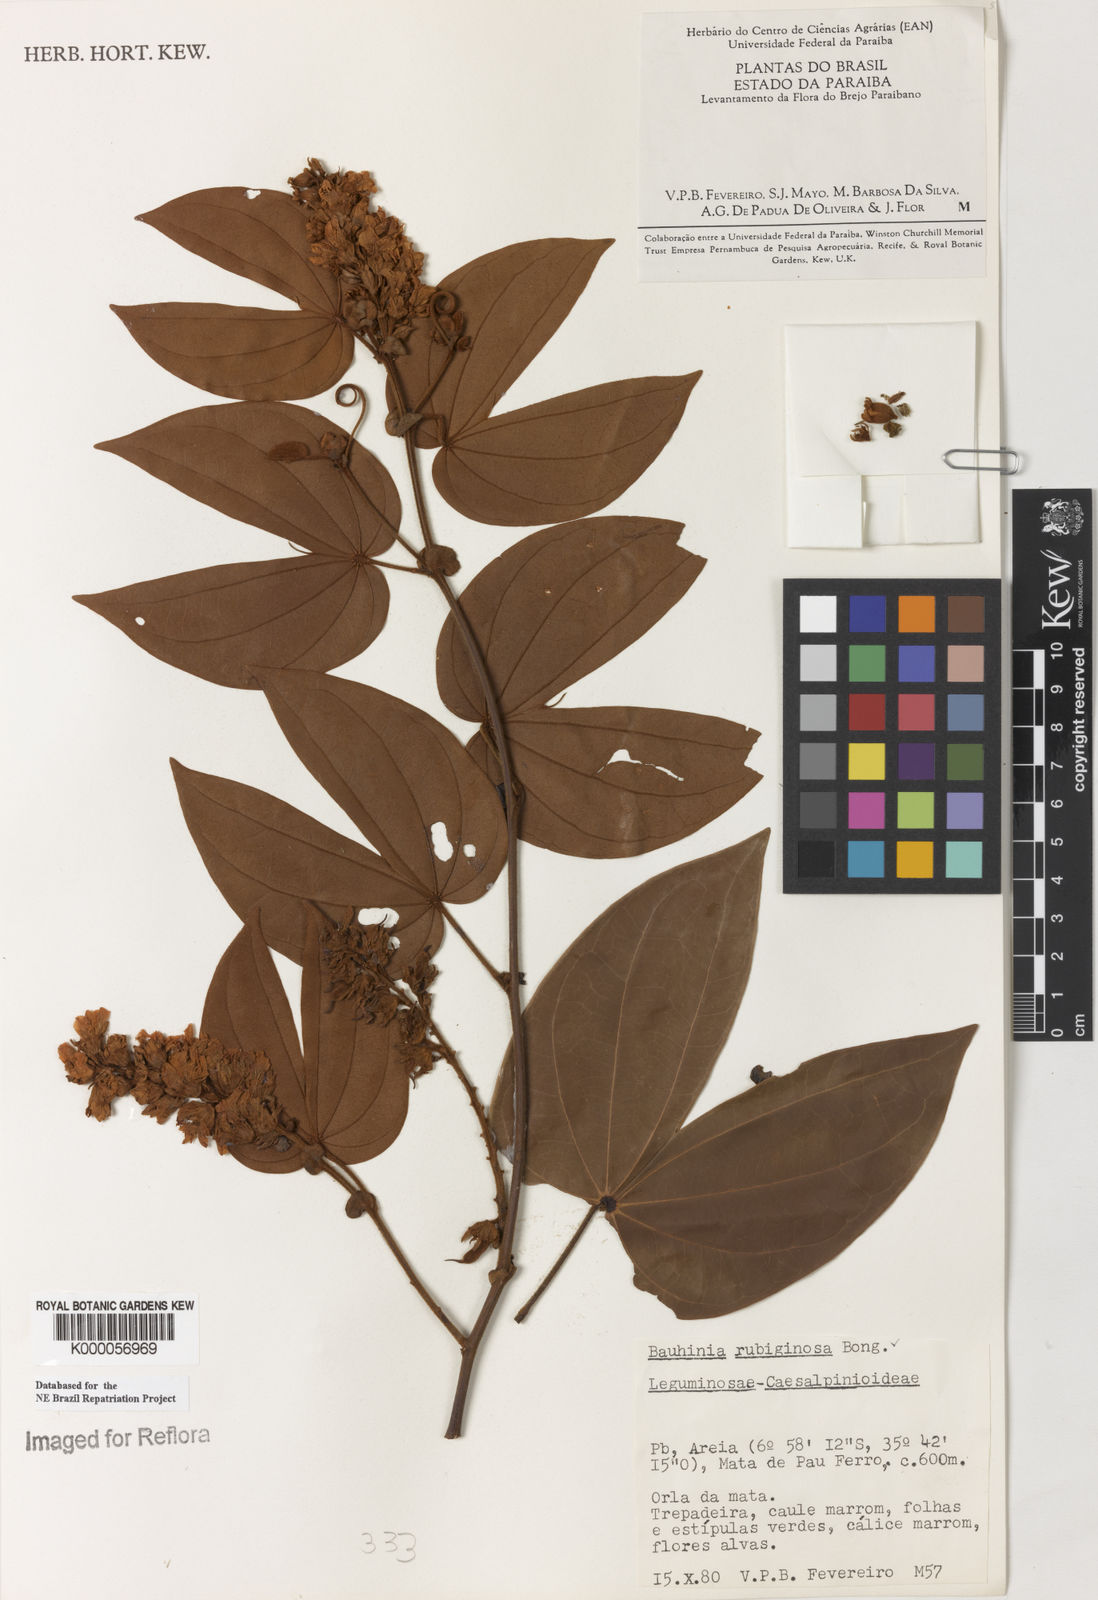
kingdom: Plantae
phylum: Tracheophyta
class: Magnoliopsida
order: Fabales
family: Fabaceae
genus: Schnella
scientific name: Schnella outimouta
